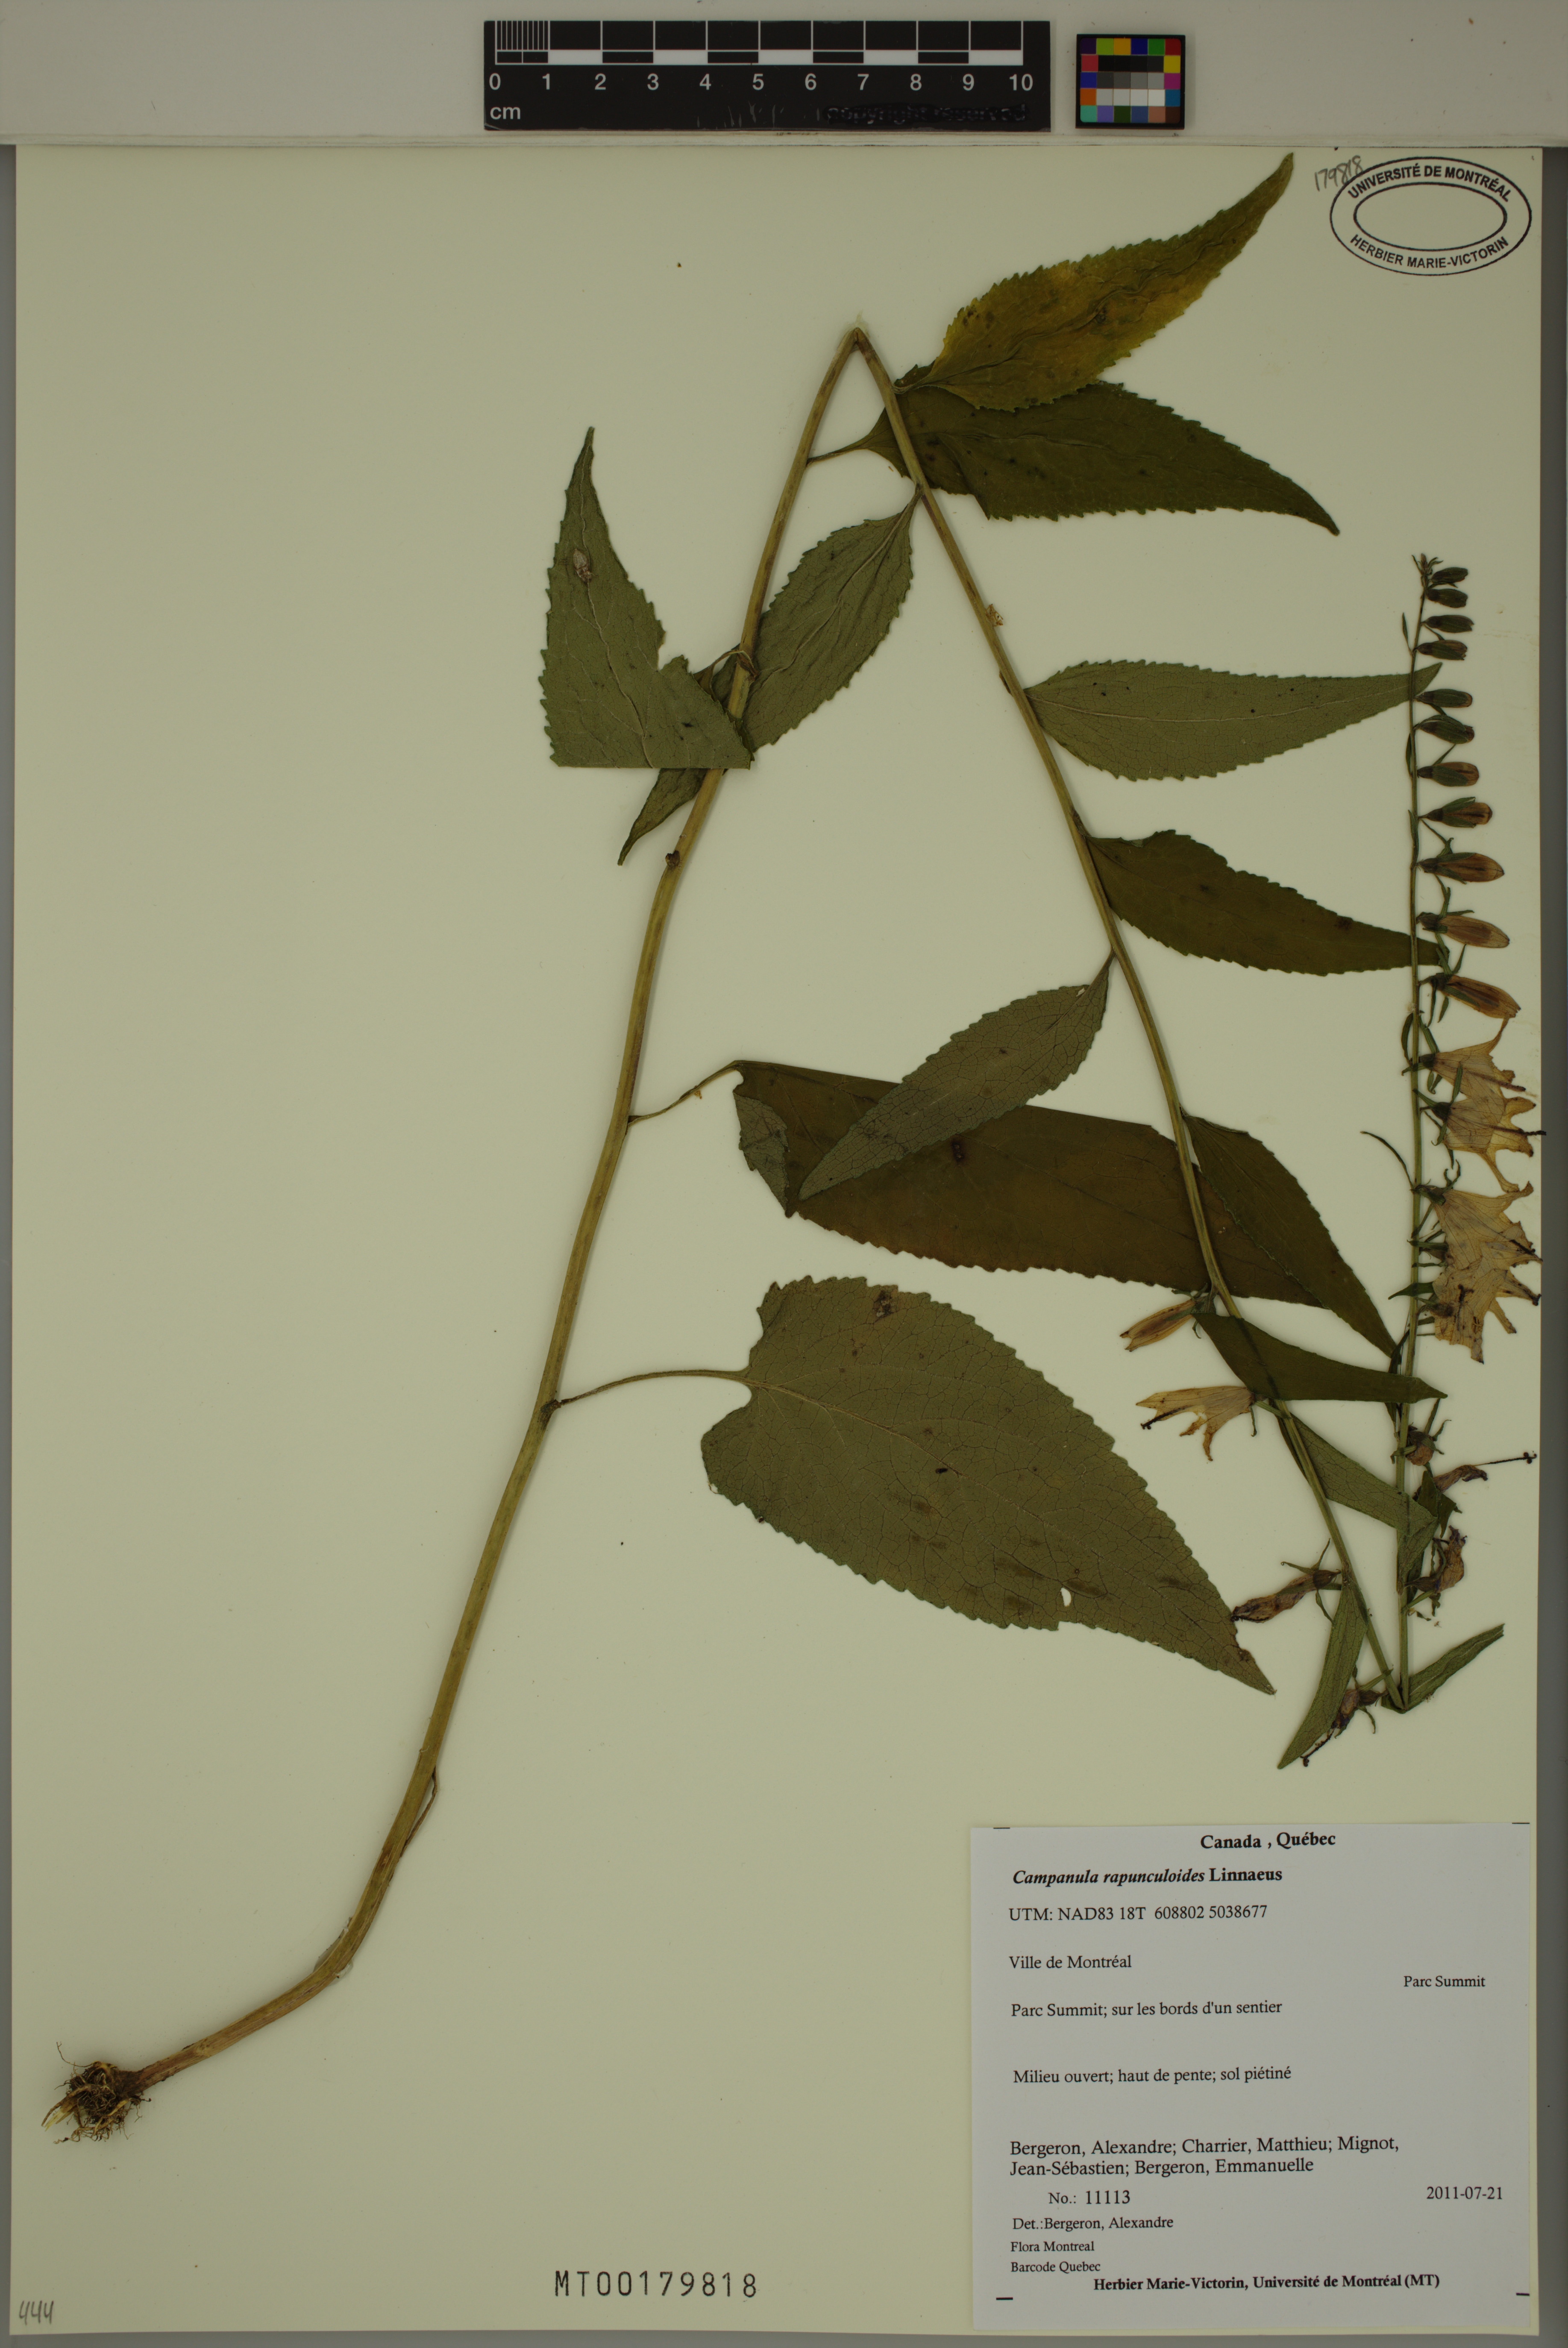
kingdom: Plantae
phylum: Tracheophyta
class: Magnoliopsida
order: Asterales
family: Campanulaceae
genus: Campanula
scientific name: Campanula rapunculoides
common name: Creeping bellflower
